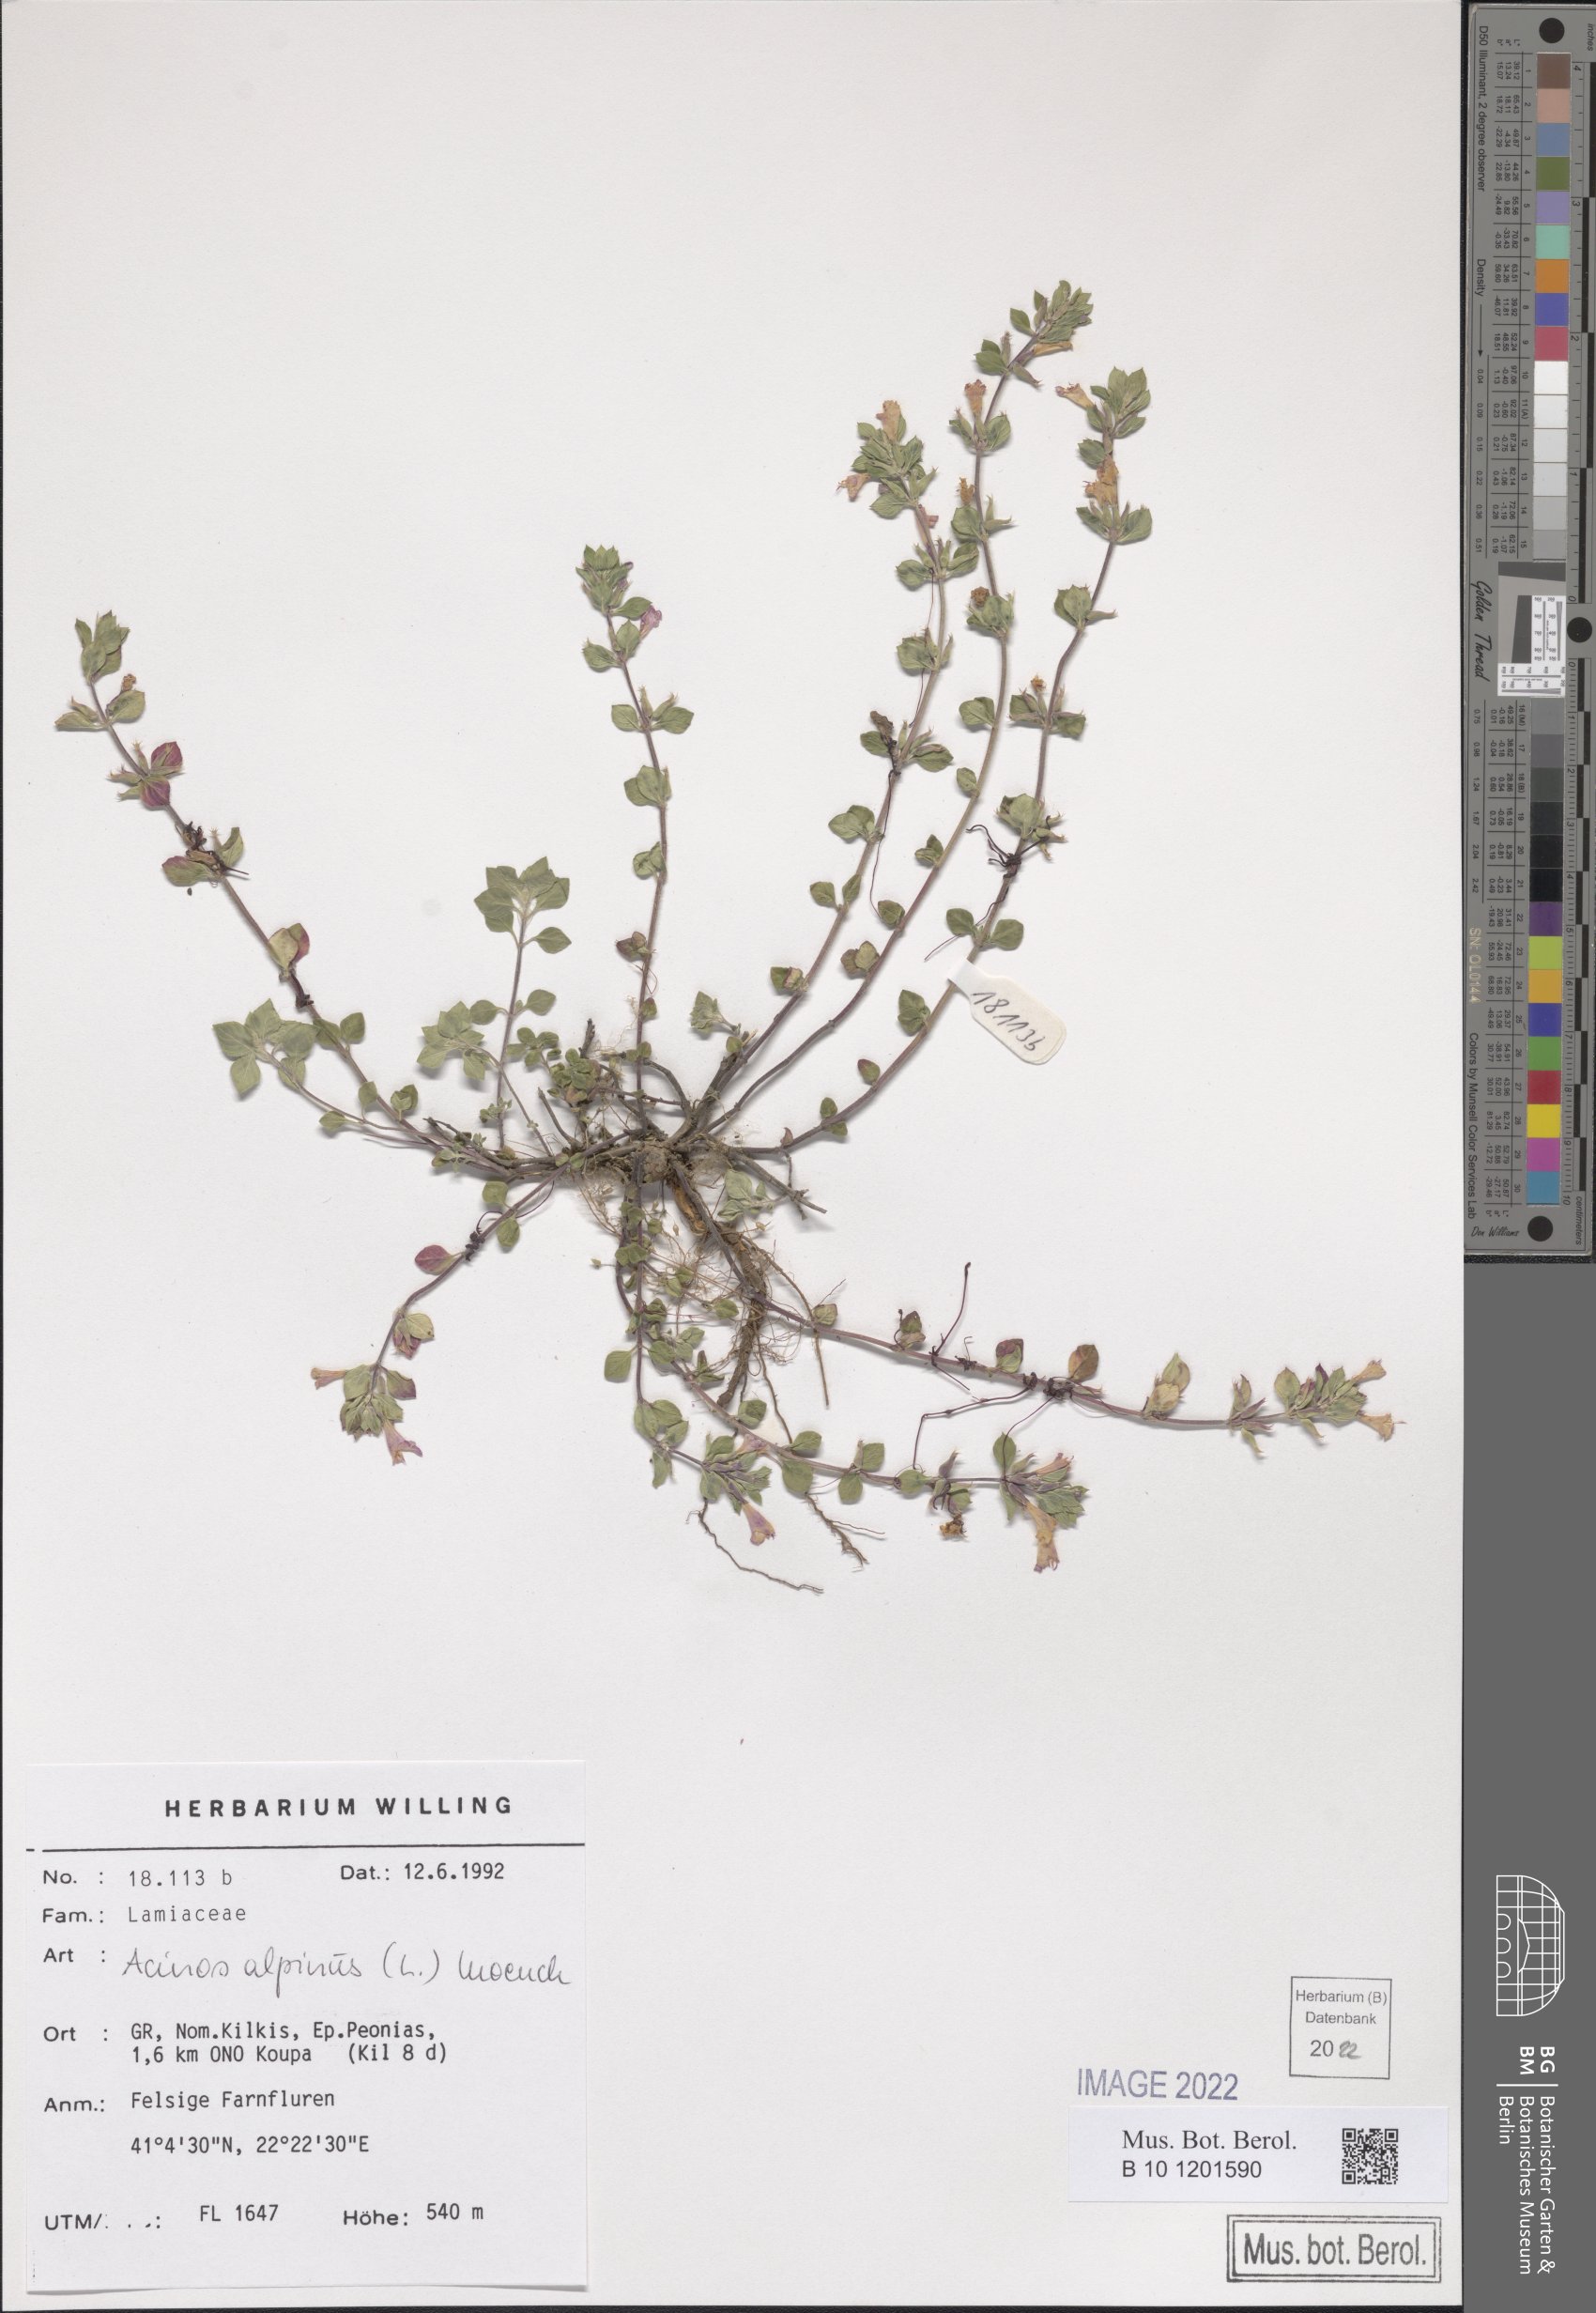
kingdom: Plantae
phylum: Tracheophyta
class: Magnoliopsida
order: Lamiales
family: Lamiaceae
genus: Clinopodium
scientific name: Clinopodium alpinum
